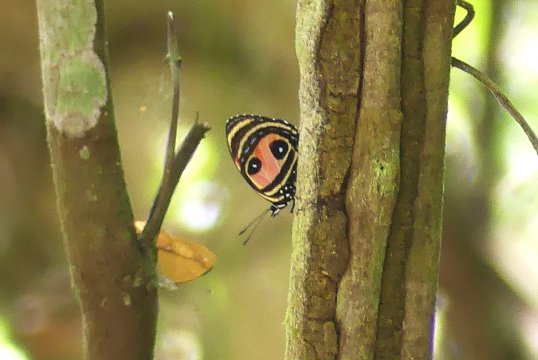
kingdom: Animalia
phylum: Arthropoda
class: Insecta
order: Lepidoptera
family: Nymphalidae
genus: Catagramma
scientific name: Catagramma Callicore pitheas
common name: Two-eyed Eighty-eight
